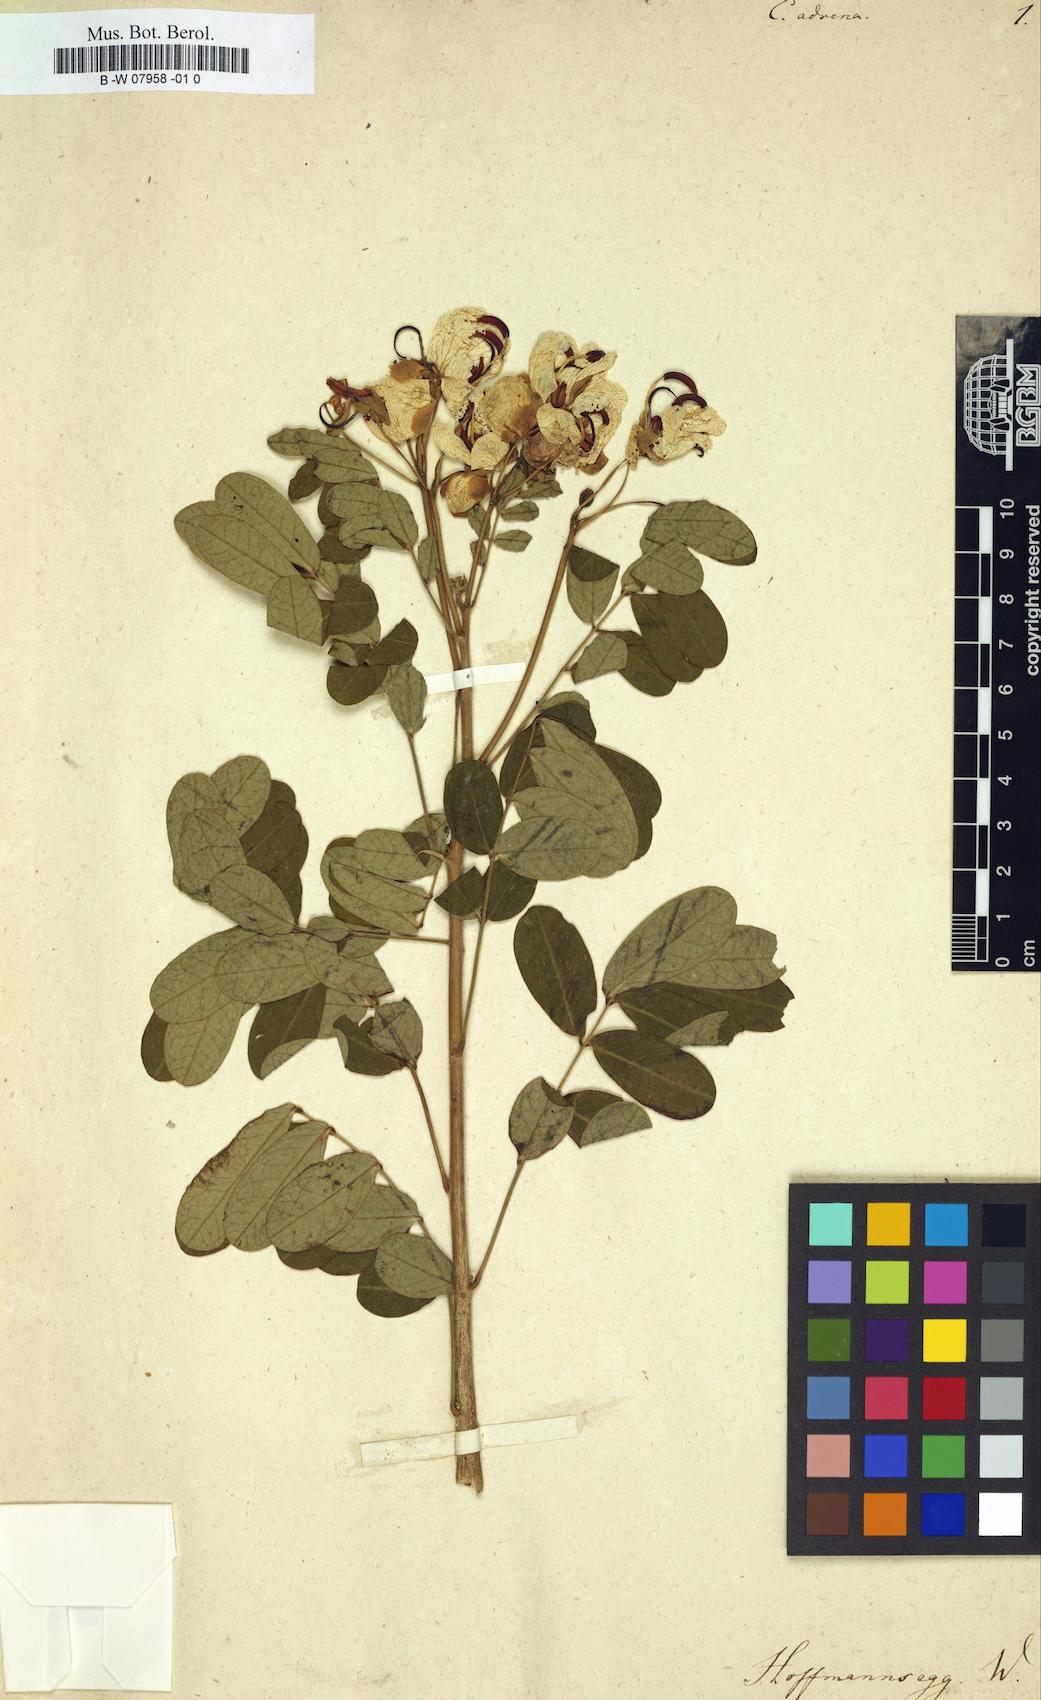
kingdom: Plantae
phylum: Tracheophyta
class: Magnoliopsida
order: Fabales
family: Fabaceae
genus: Senna
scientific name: Senna bicapsularis
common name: Christmasbush
